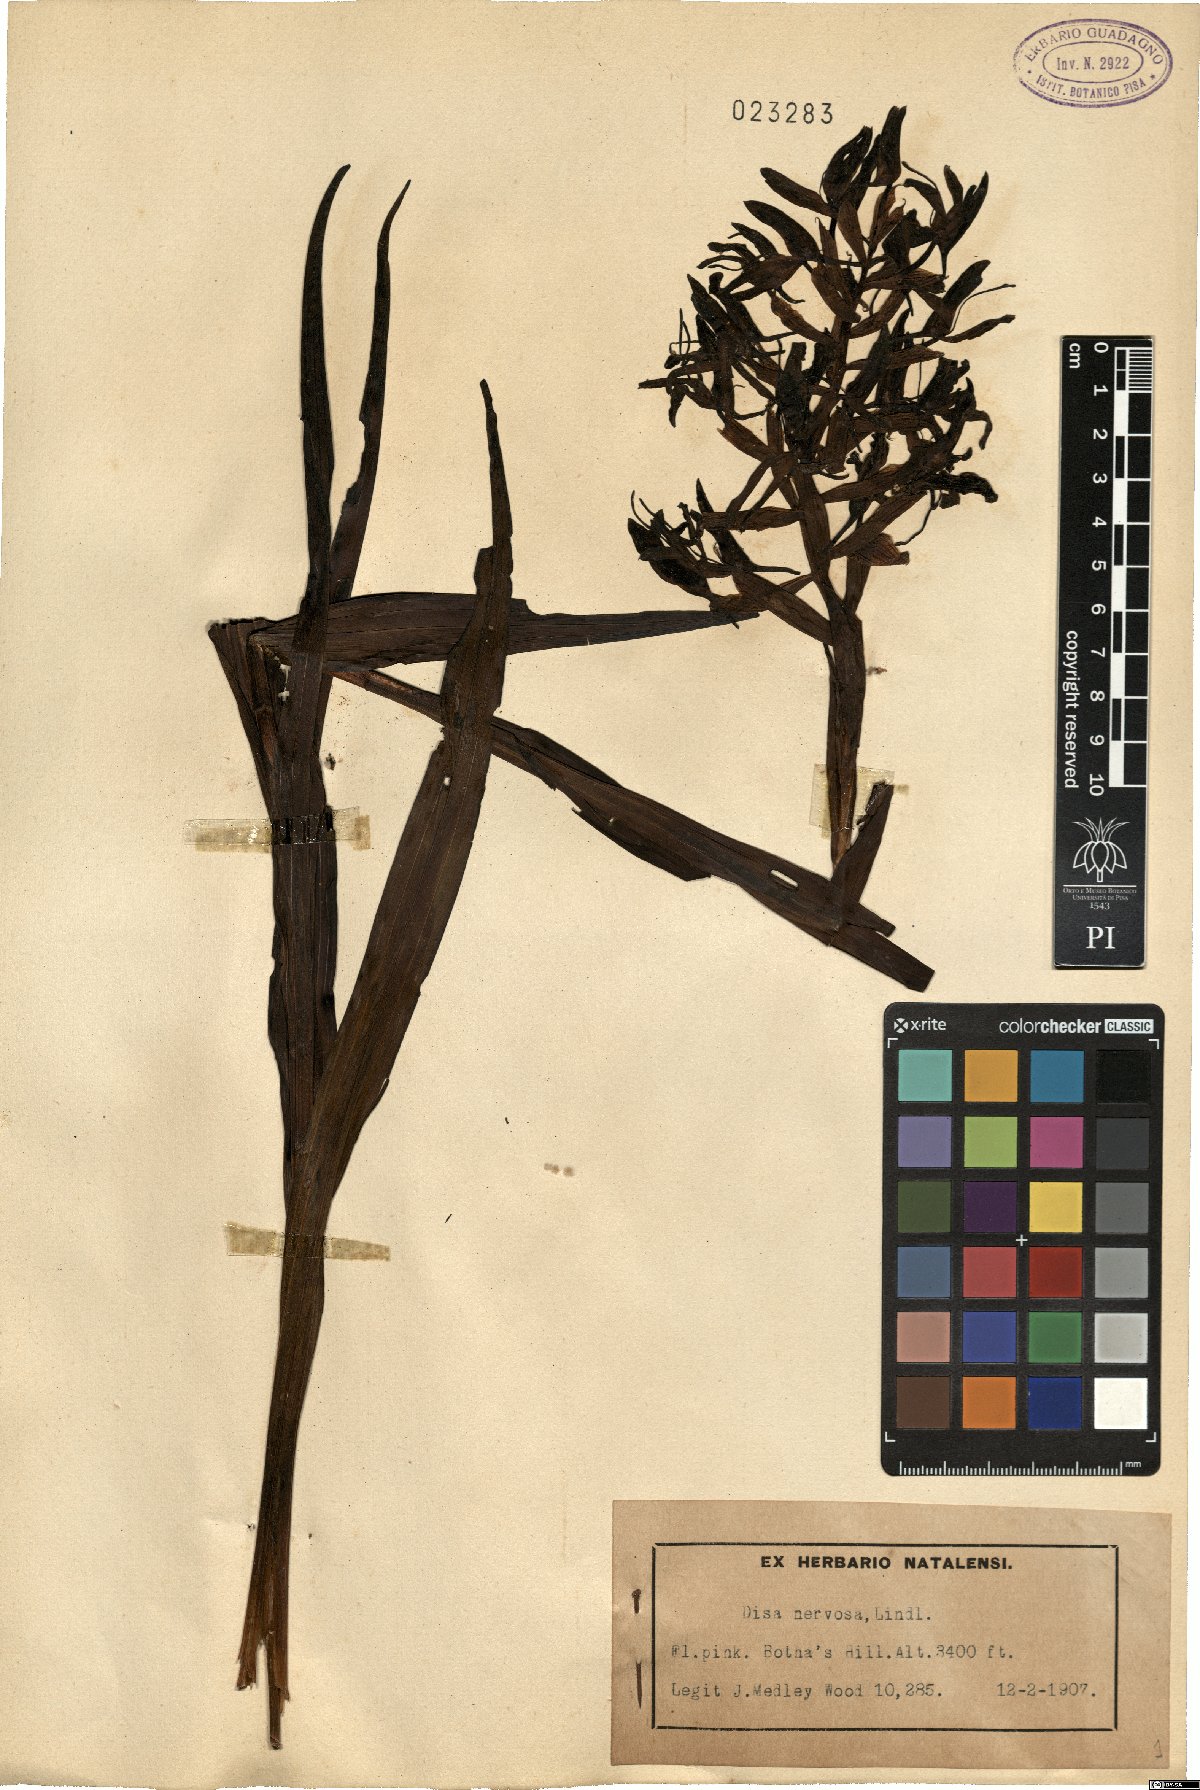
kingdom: Plantae
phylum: Tracheophyta
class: Liliopsida
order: Asparagales
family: Orchidaceae
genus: Disa
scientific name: Disa nervosa
